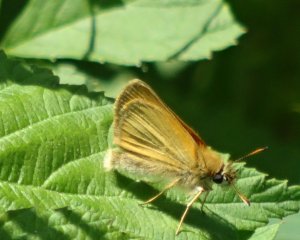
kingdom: Animalia
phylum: Arthropoda
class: Insecta
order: Lepidoptera
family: Hesperiidae
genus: Thymelicus
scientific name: Thymelicus lineola
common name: European Skipper
